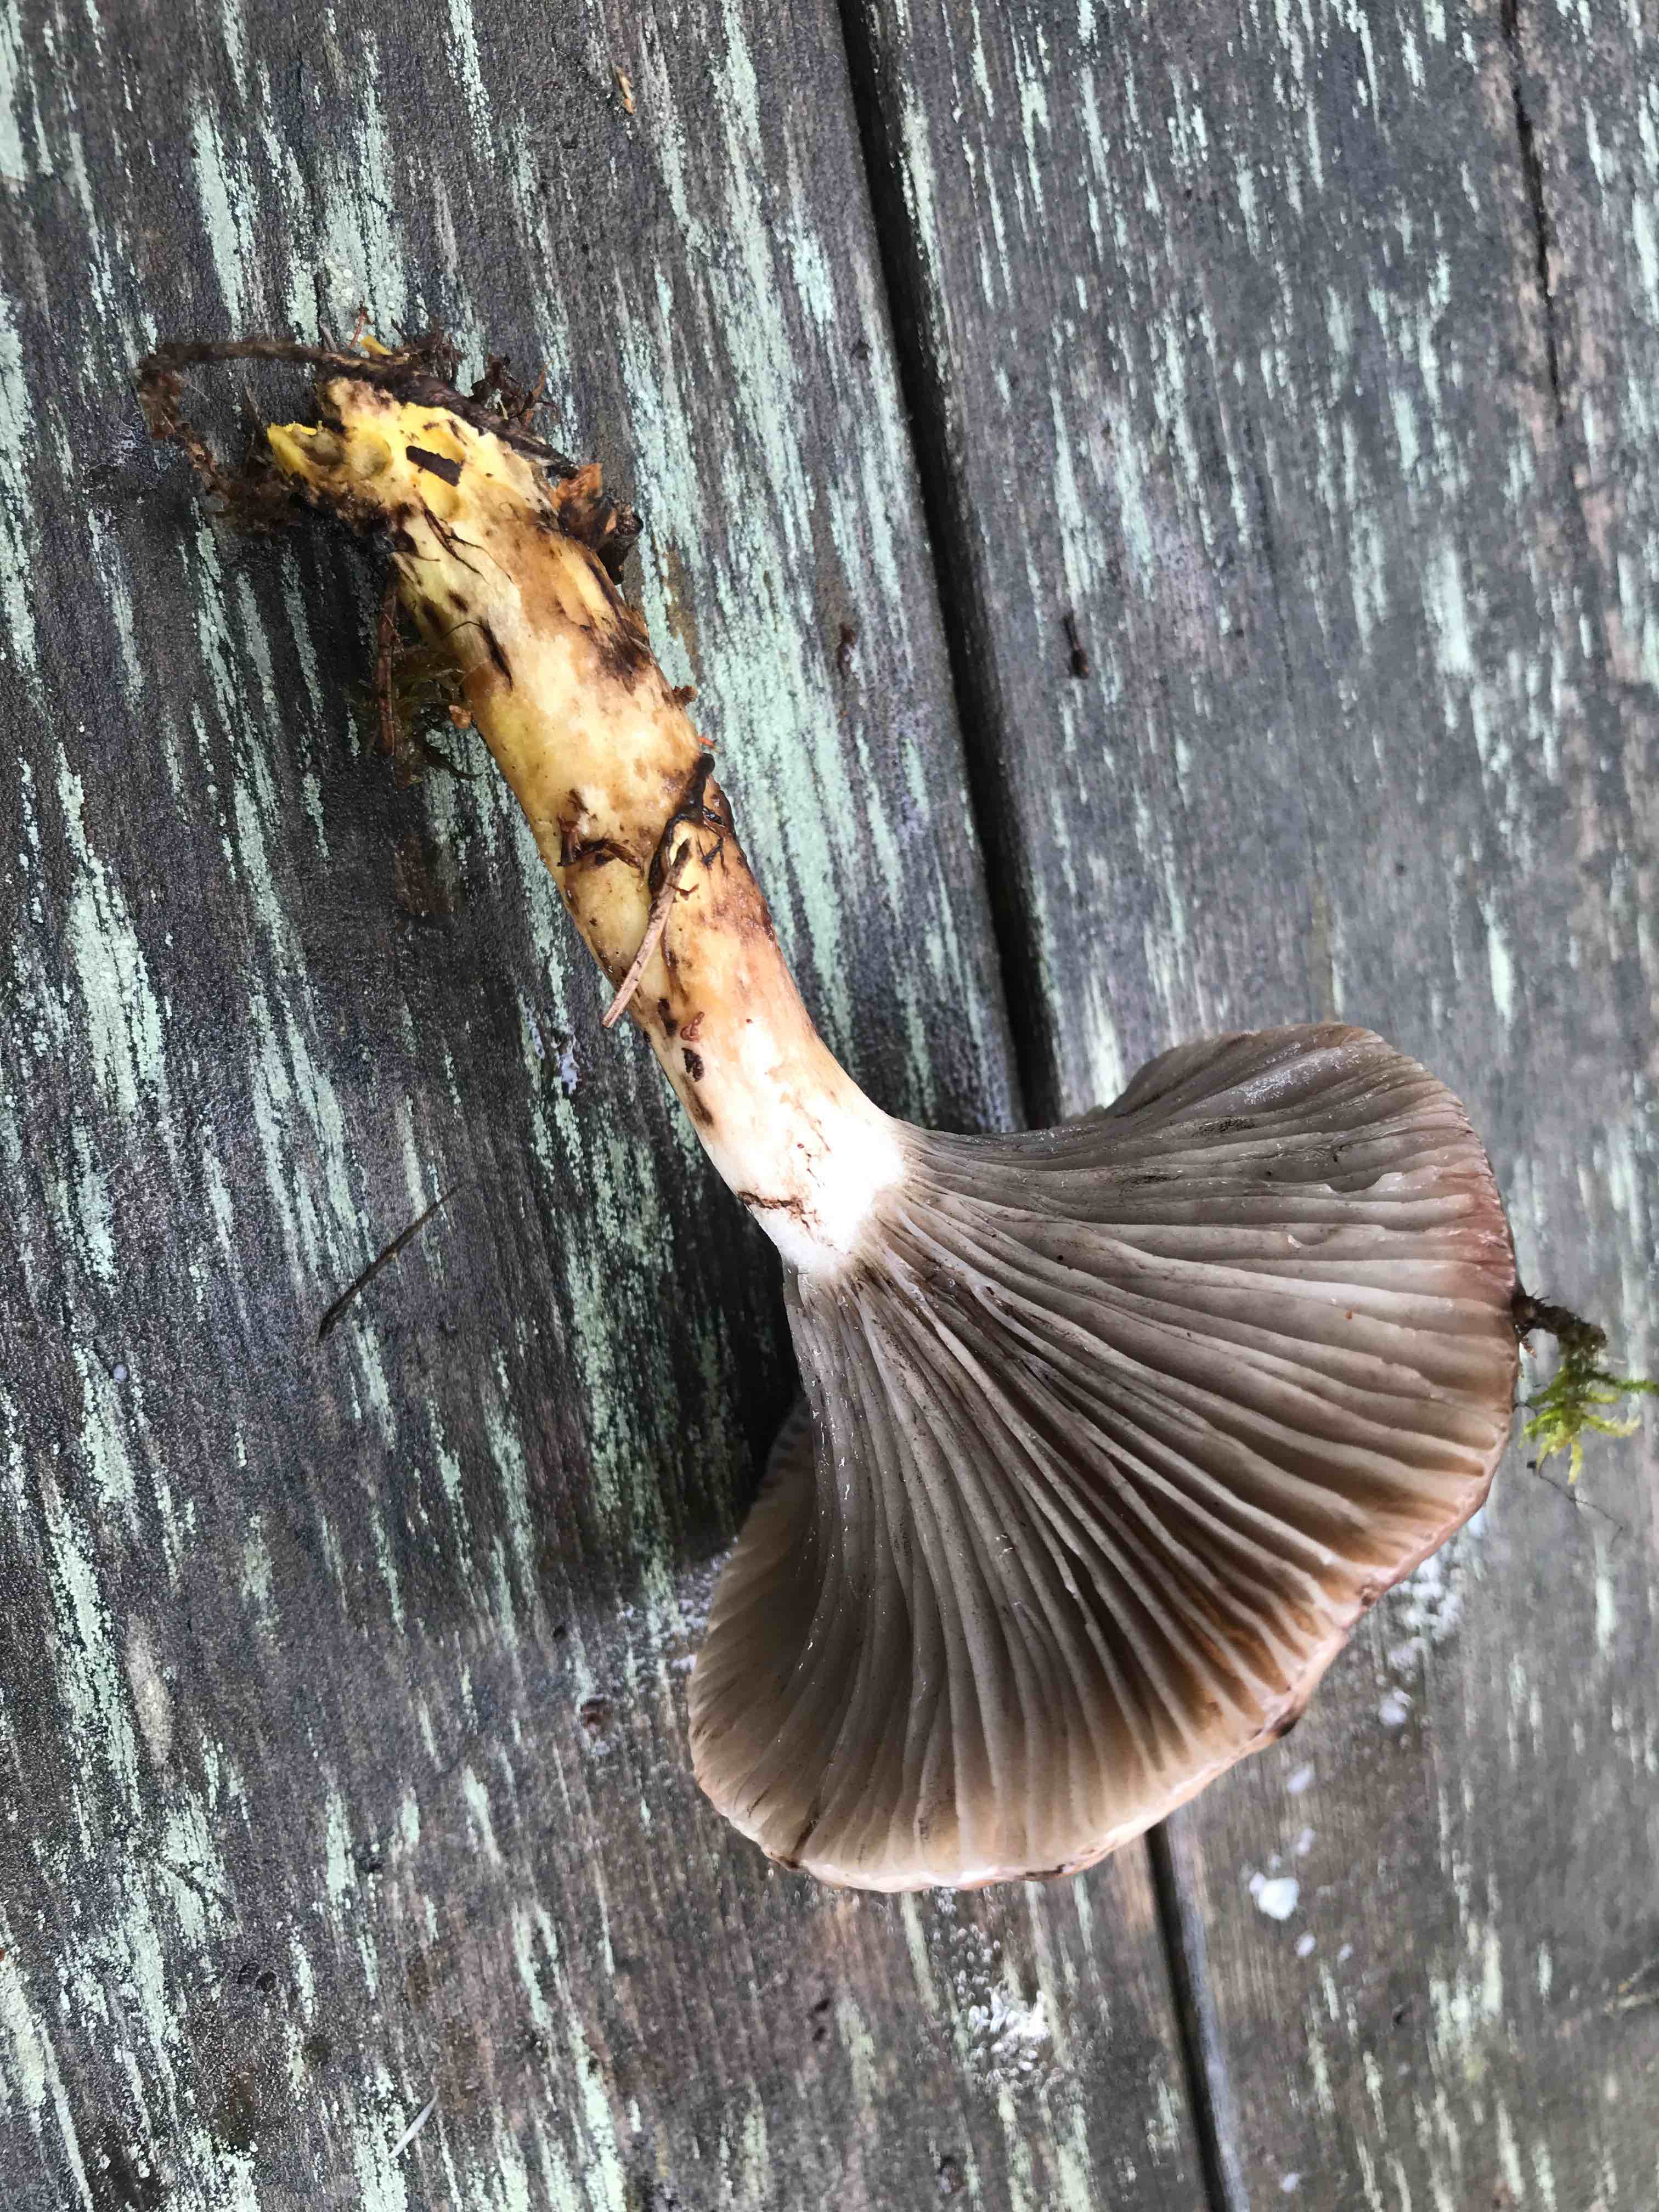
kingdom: Fungi
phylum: Basidiomycota
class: Agaricomycetes
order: Boletales
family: Gomphidiaceae
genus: Gomphidius
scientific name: Gomphidius glutinosus
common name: grå slimslør
